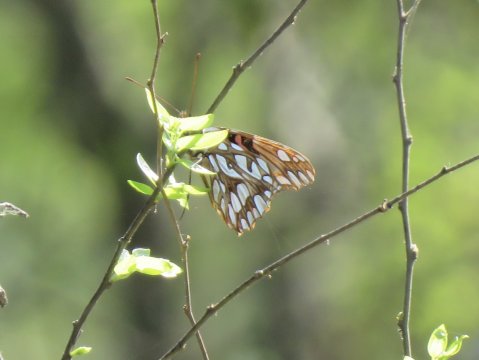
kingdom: Animalia
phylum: Arthropoda
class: Insecta
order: Lepidoptera
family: Nymphalidae
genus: Dione
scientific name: Dione moneta
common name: Mexican Silverspot
